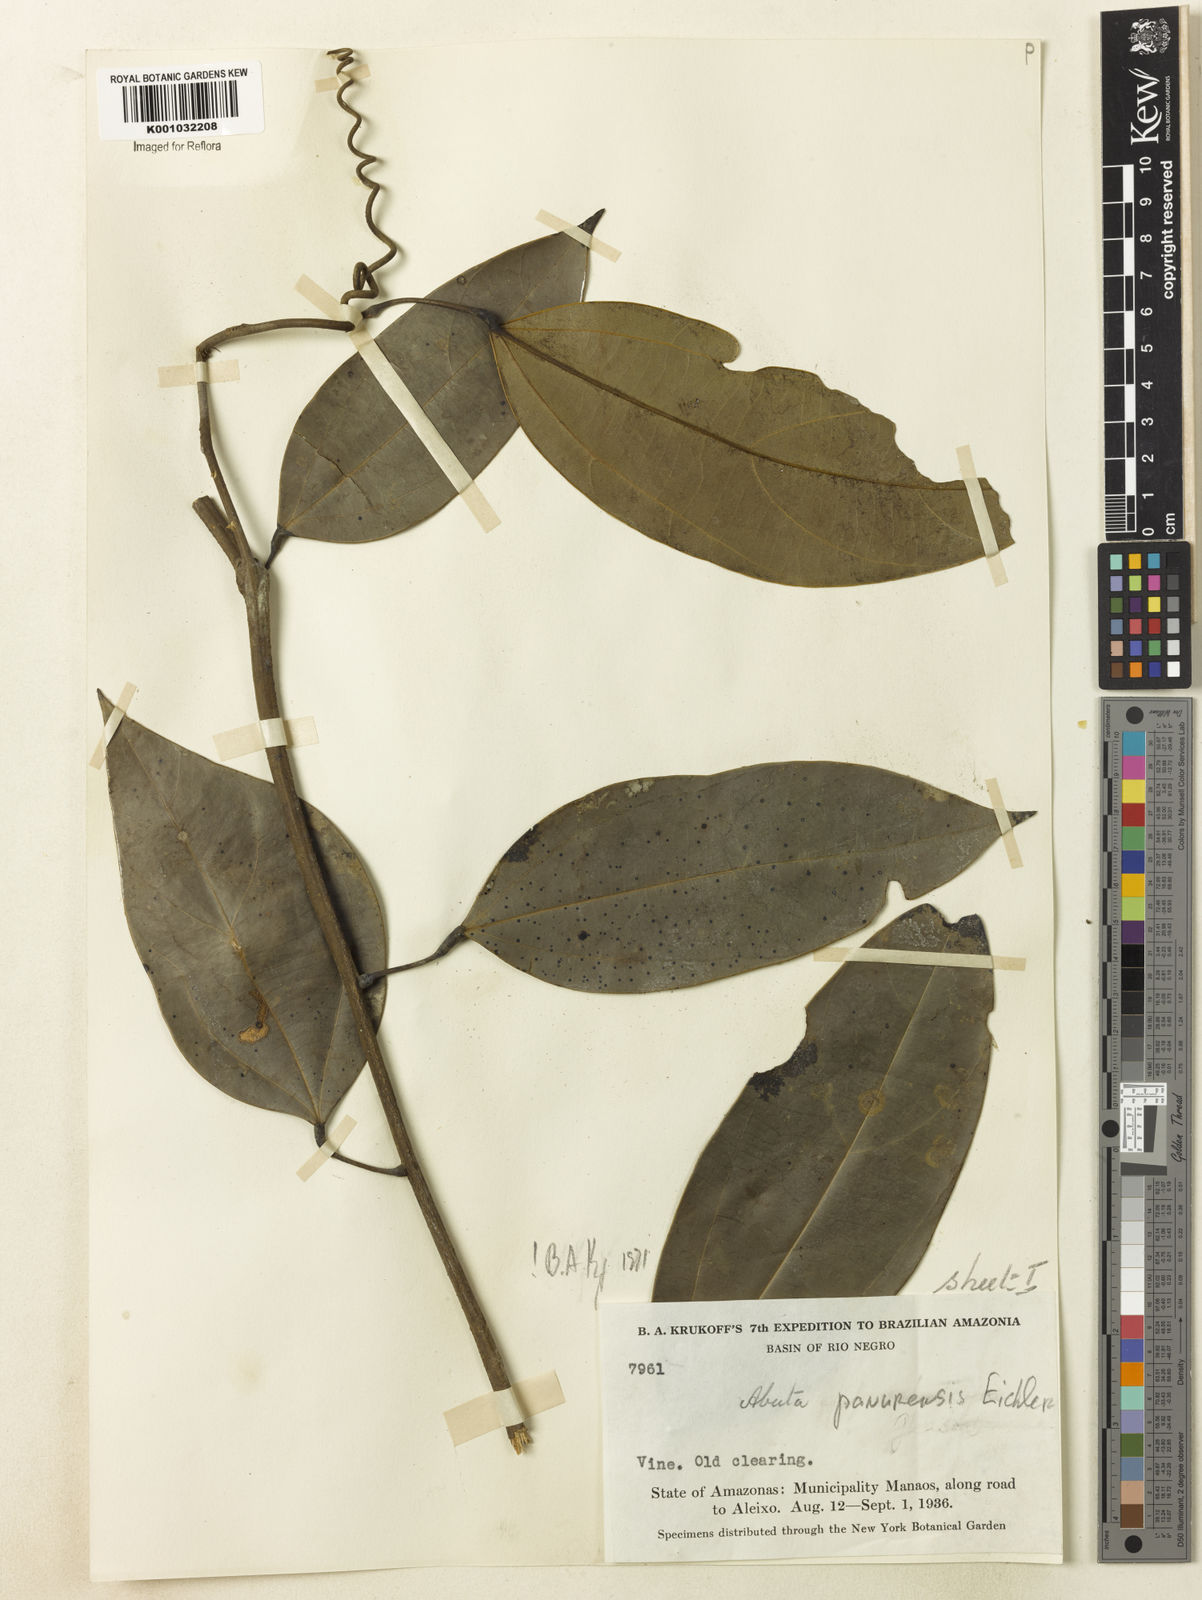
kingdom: Plantae
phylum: Tracheophyta
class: Magnoliopsida
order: Ranunculales
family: Menispermaceae
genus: Abuta
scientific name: Abuta panurensis
